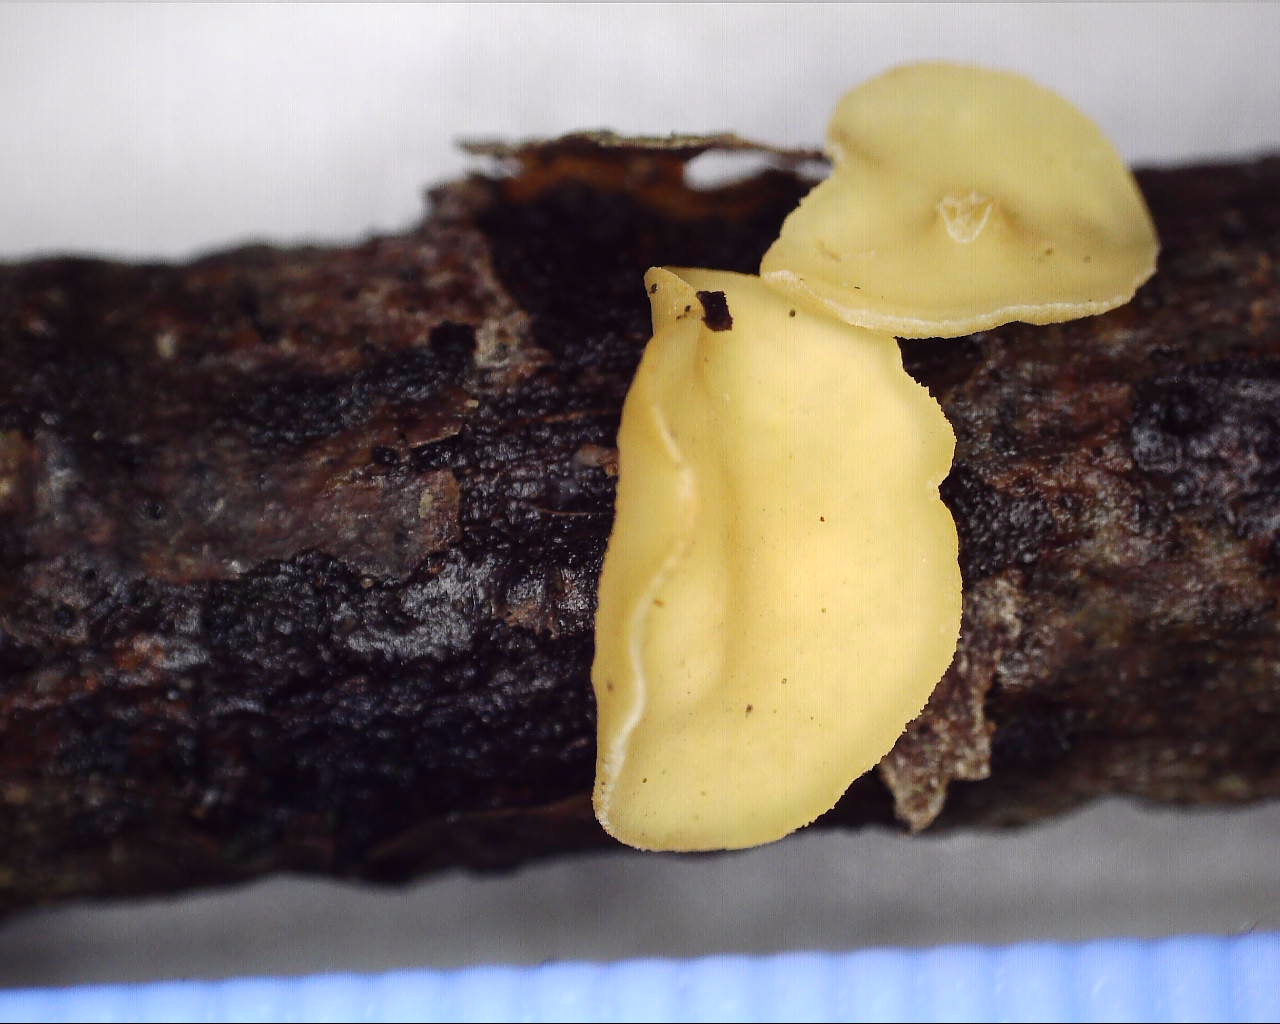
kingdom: Fungi
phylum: Ascomycota
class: Leotiomycetes
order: Helotiales
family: Helotiaceae
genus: Hymenoscyphus
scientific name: Hymenoscyphus
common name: stilkskive
